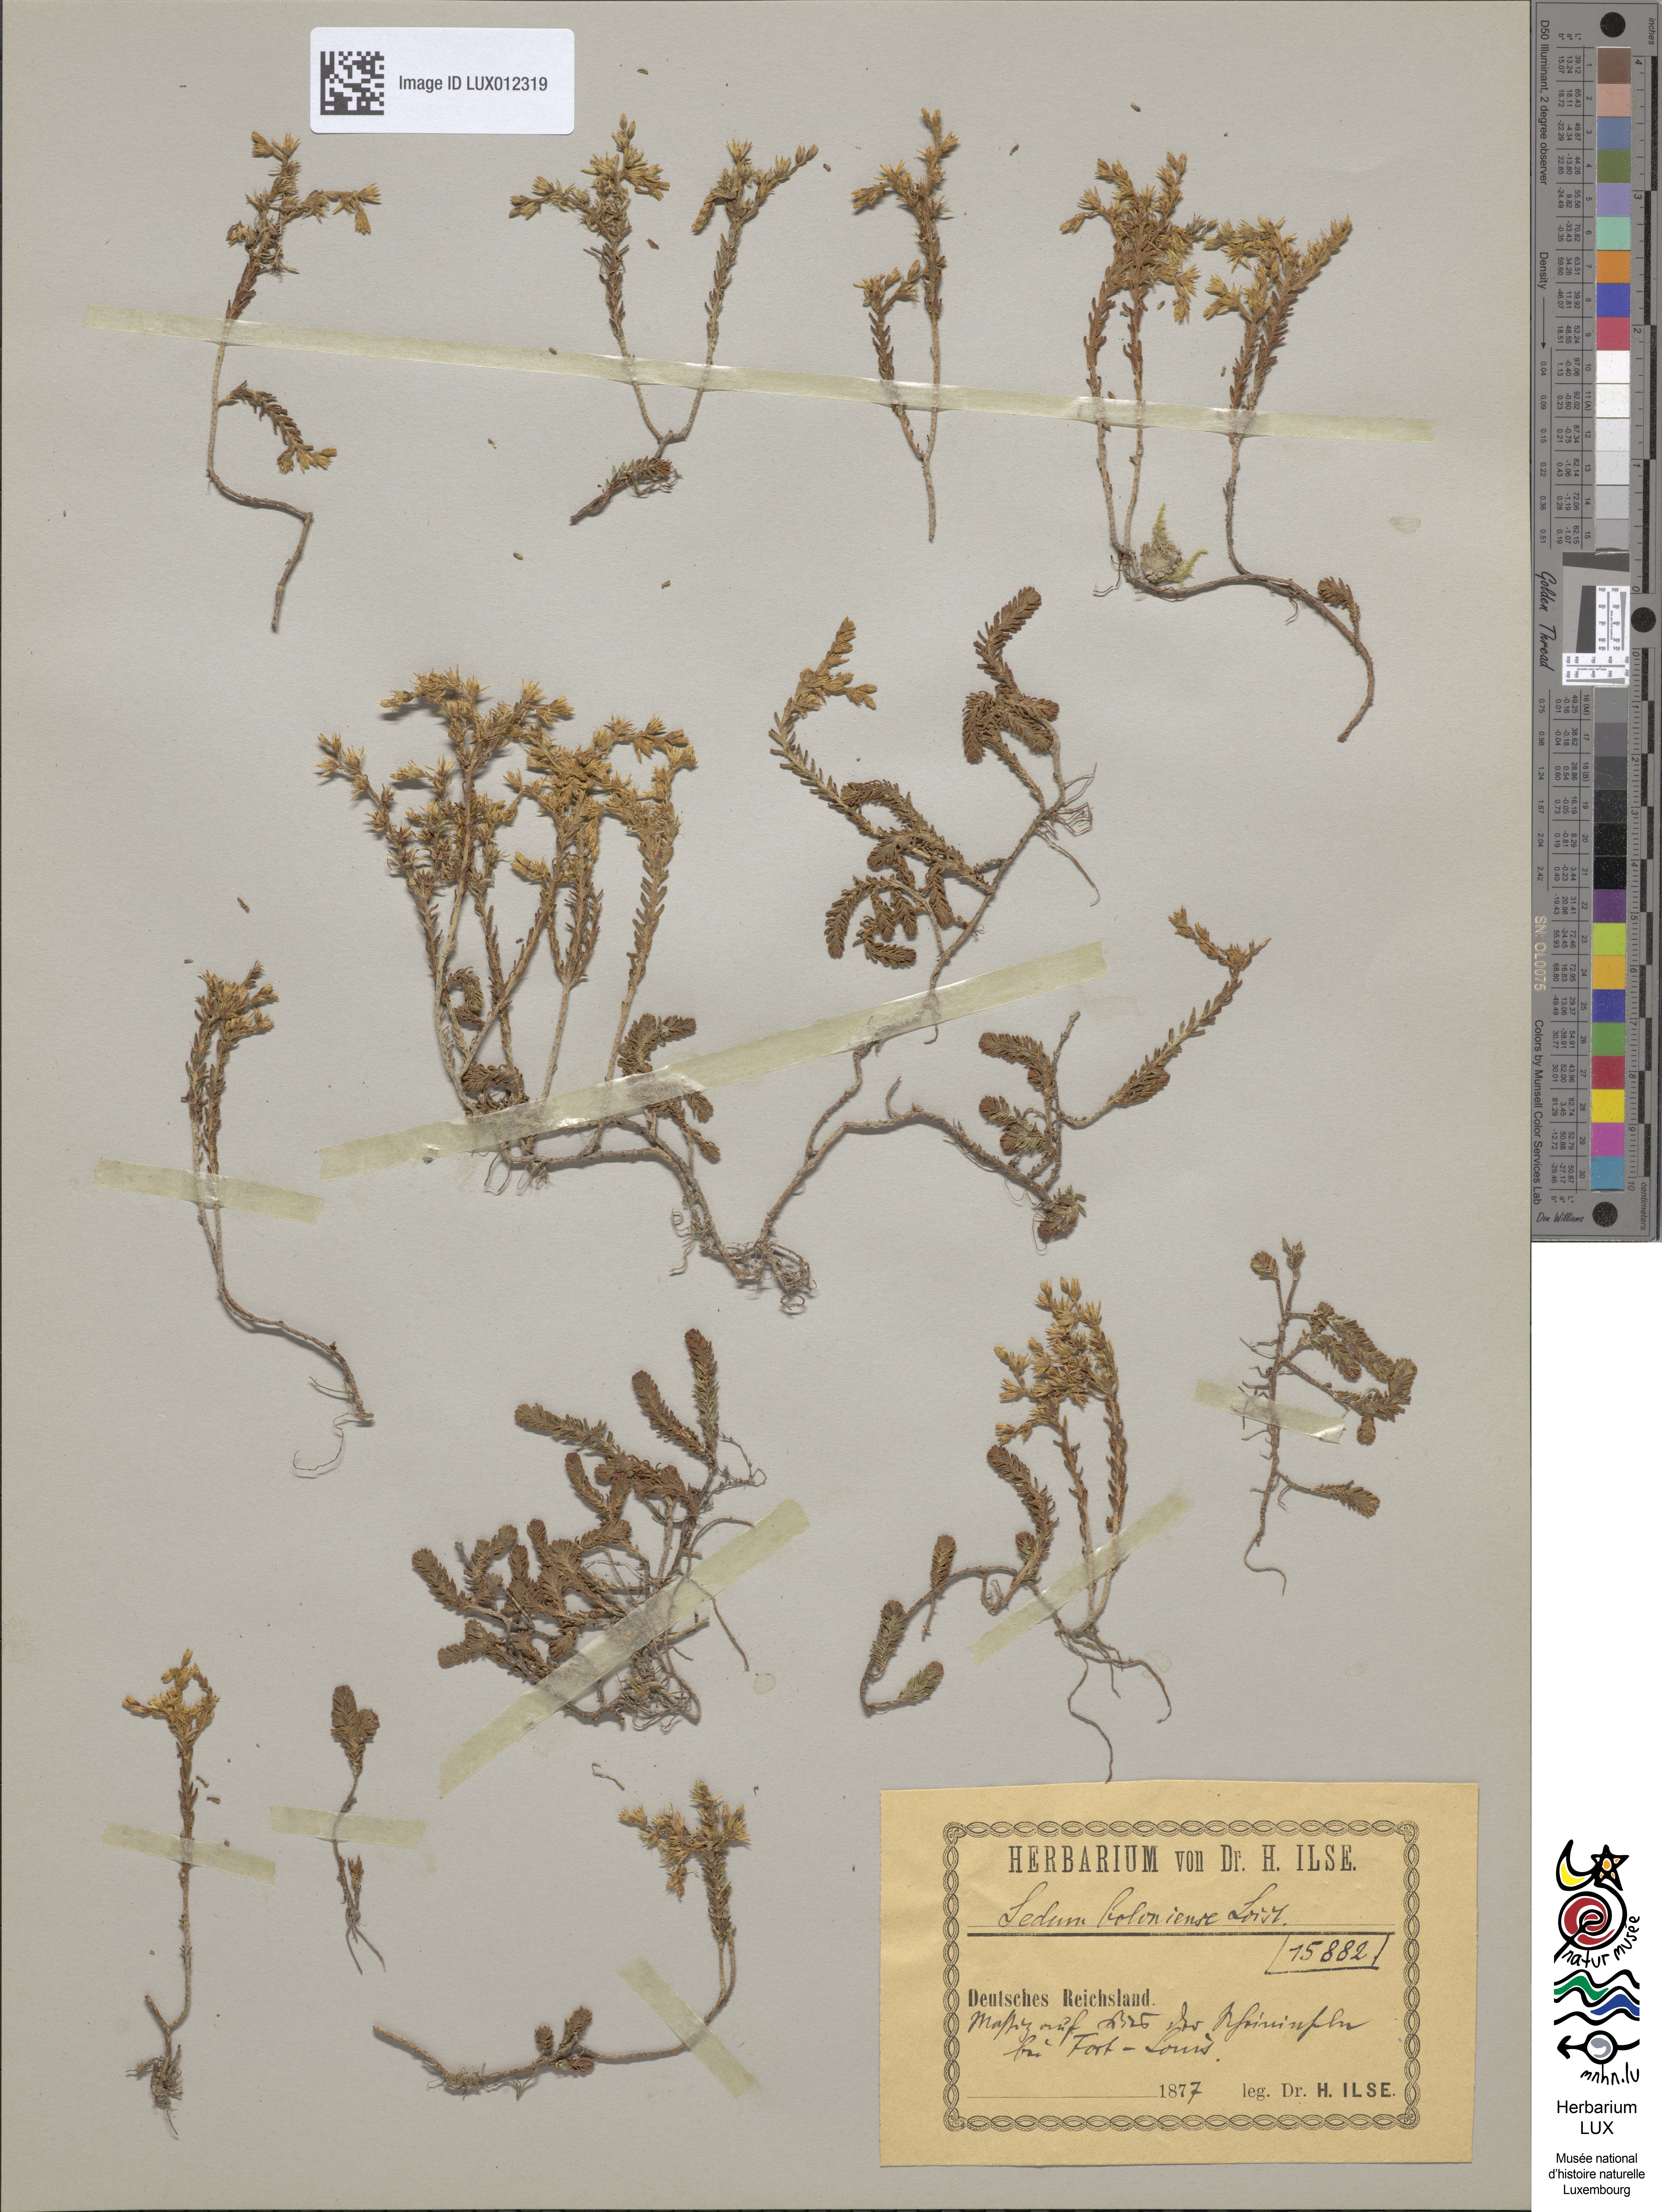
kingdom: Plantae
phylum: Tracheophyta
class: Magnoliopsida
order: Saxifragales
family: Crassulaceae
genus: Sedum
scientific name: Sedum sexangulare
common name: Tasteless stonecrop
